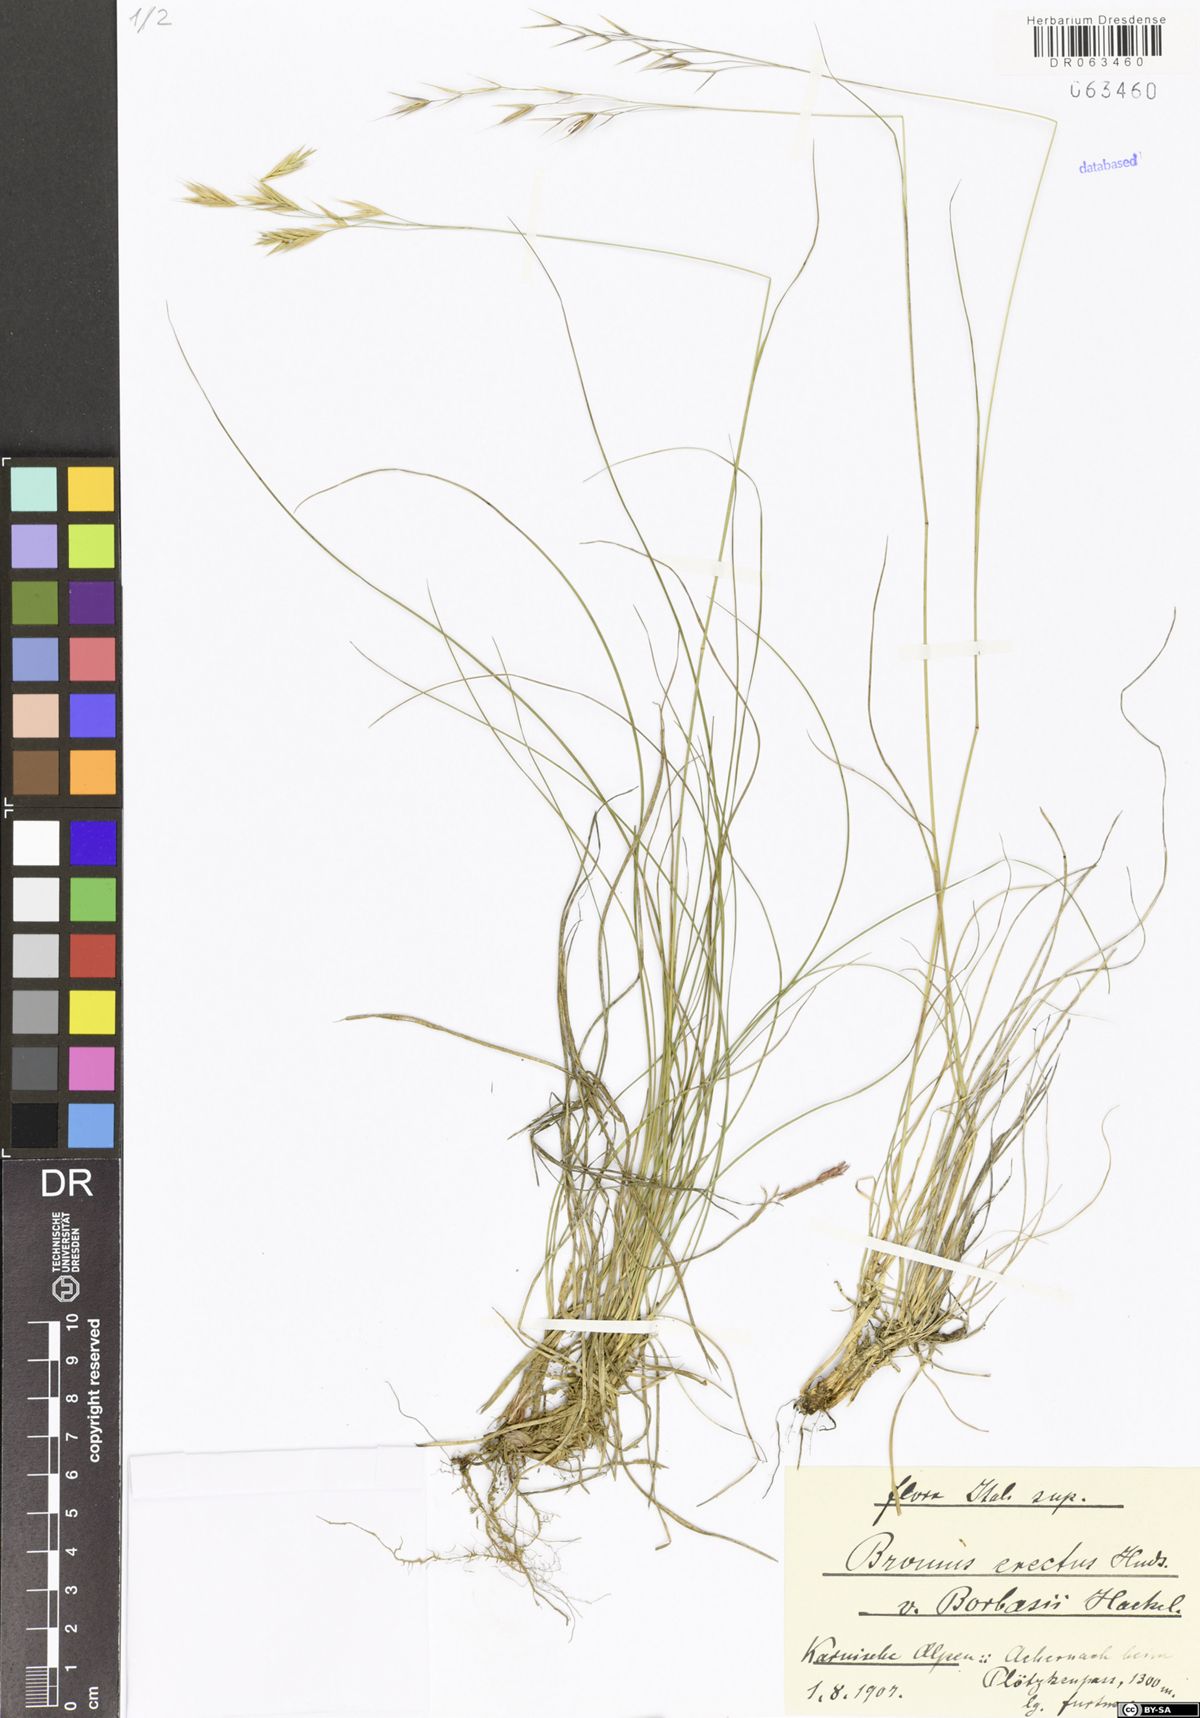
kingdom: Plantae
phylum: Tracheophyta
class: Liliopsida
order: Poales
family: Poaceae
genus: Bromus
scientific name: Bromus erectus
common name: Erect brome
